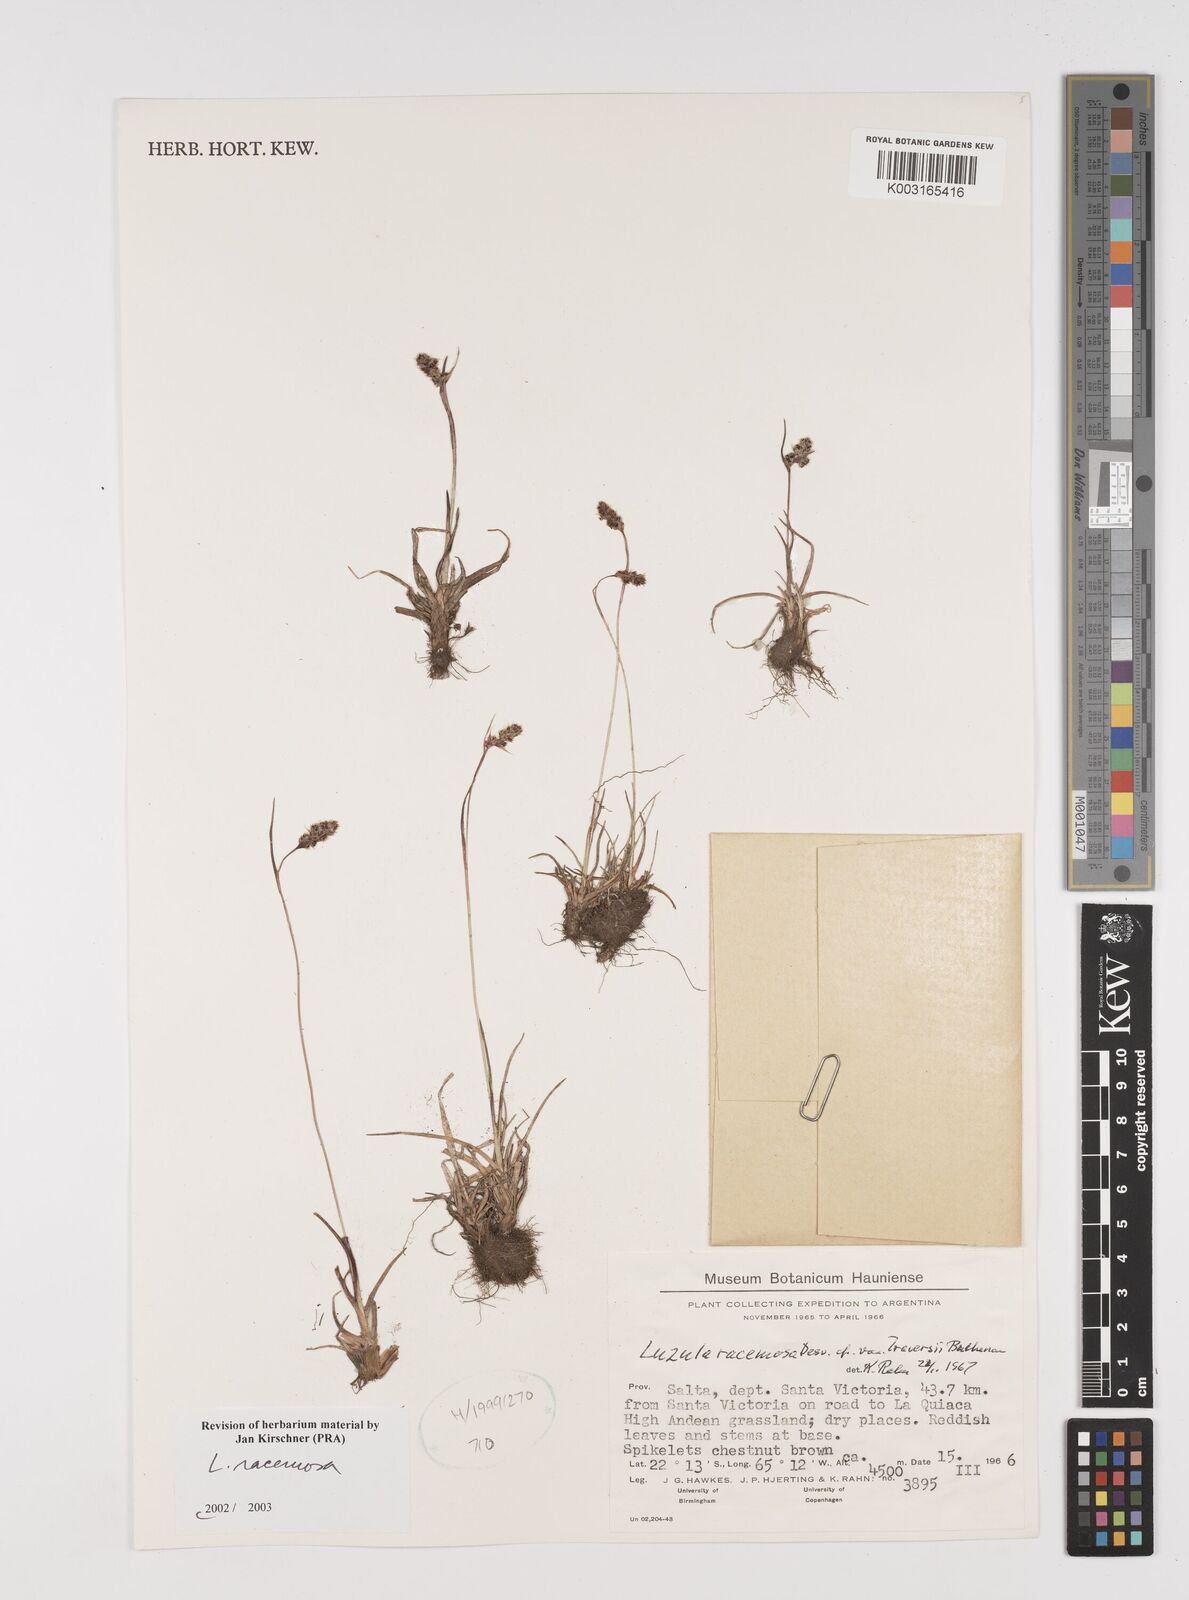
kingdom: Plantae
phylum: Tracheophyta
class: Liliopsida
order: Poales
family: Juncaceae
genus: Luzula
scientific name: Luzula racemosa
